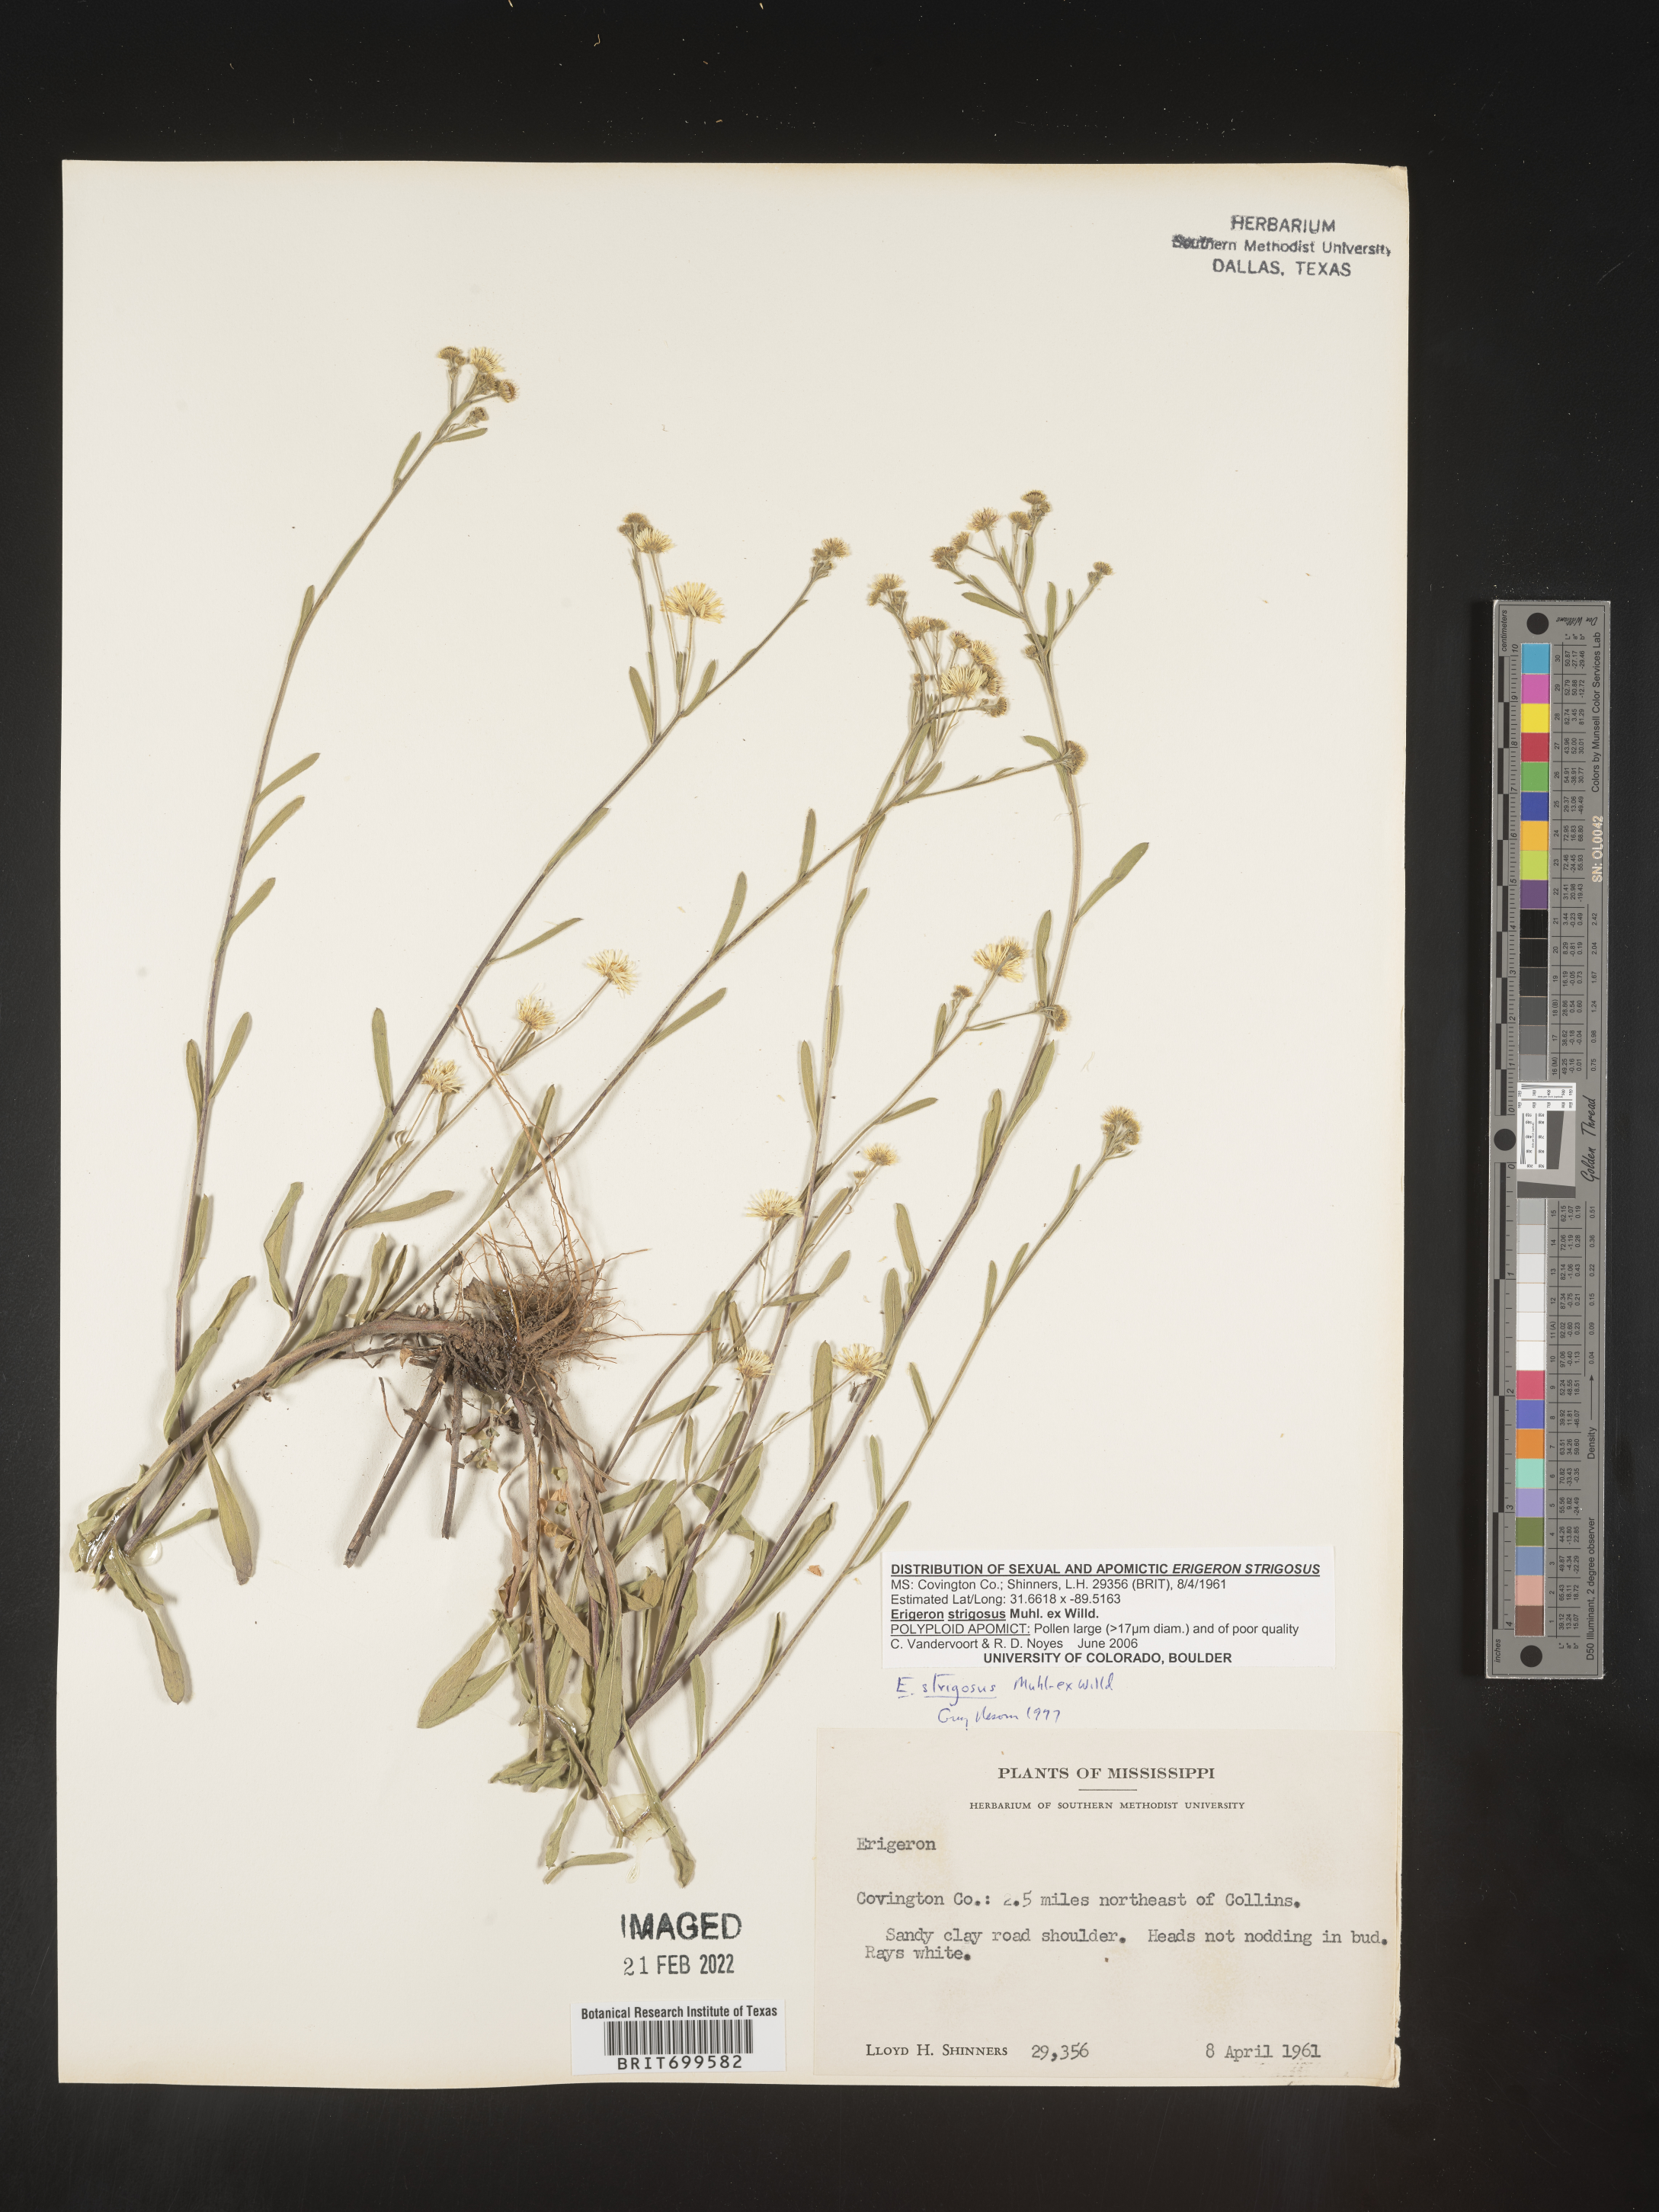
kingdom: Plantae
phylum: Tracheophyta
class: Magnoliopsida
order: Asterales
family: Asteraceae
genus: Erigeron
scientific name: Erigeron strigosus
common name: Common eastern fleabane
